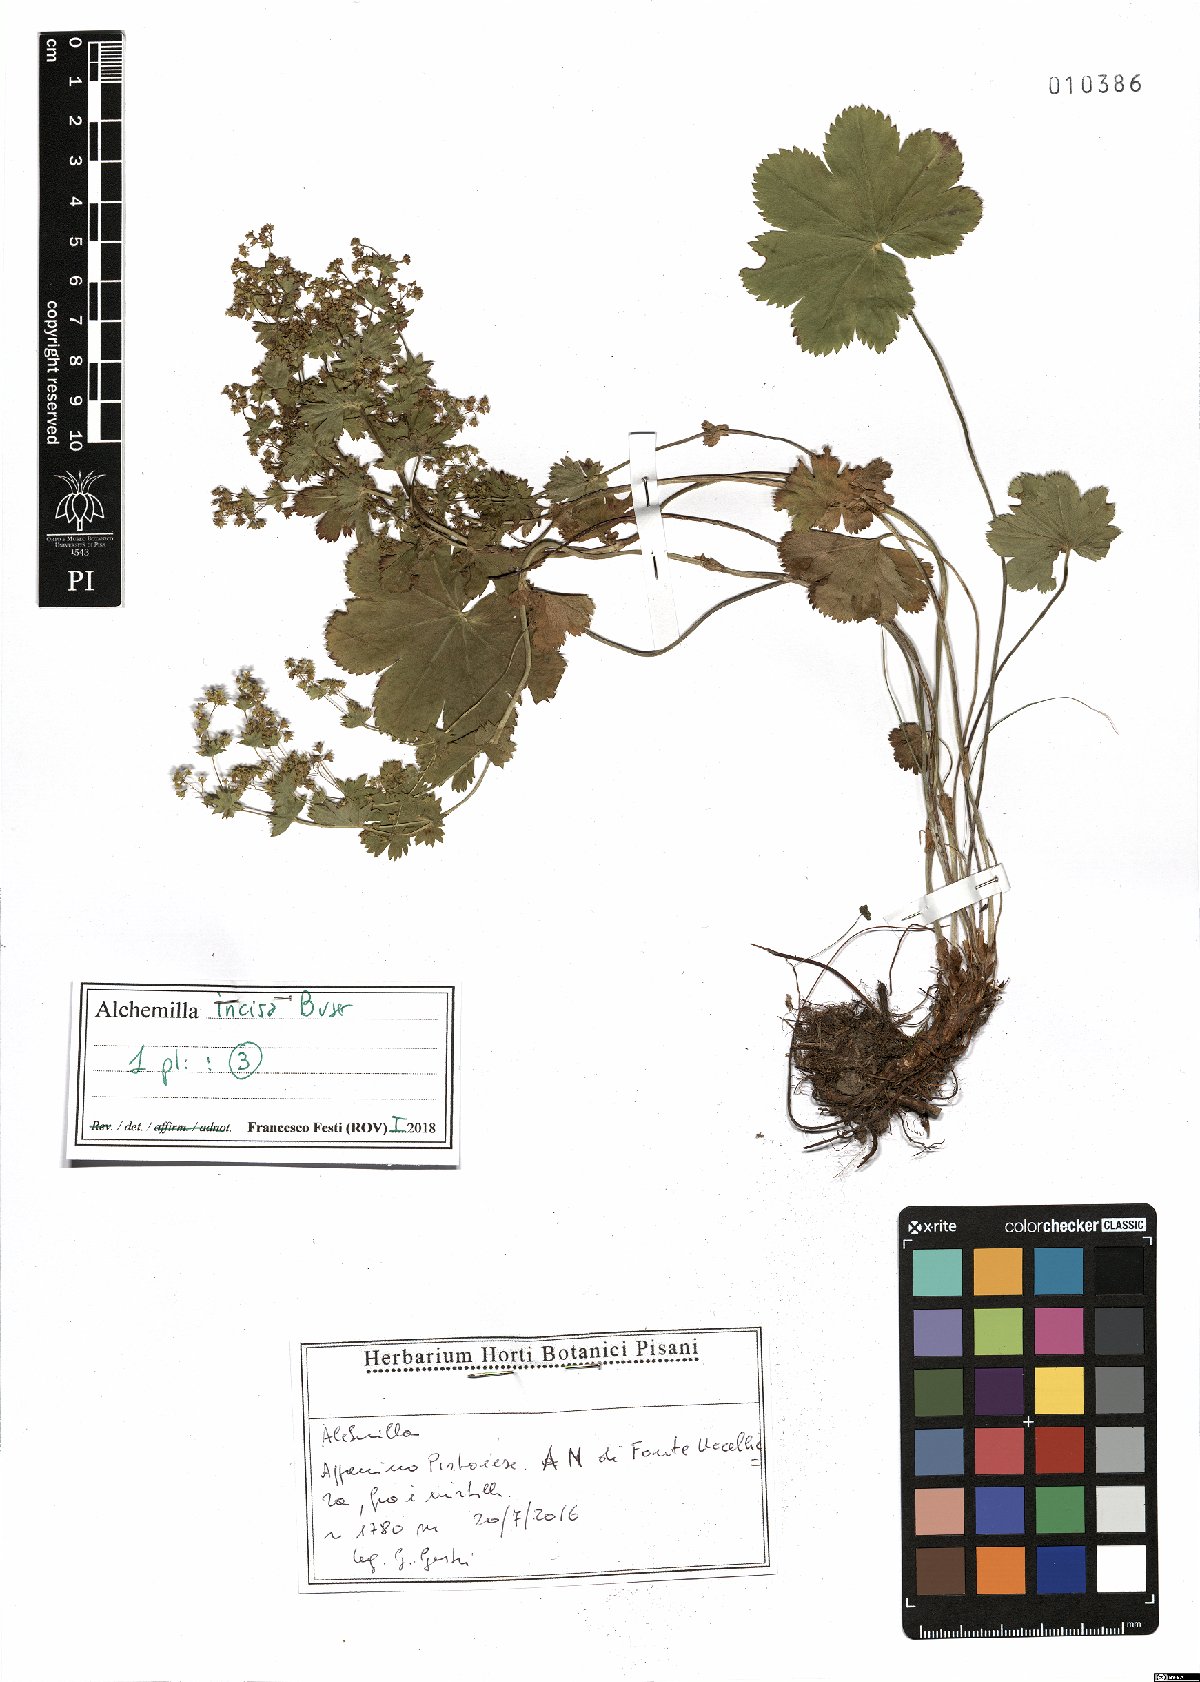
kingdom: Plantae
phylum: Tracheophyta
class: Magnoliopsida
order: Rosales
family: Rosaceae
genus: Alchemilla
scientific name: Alchemilla incisa
